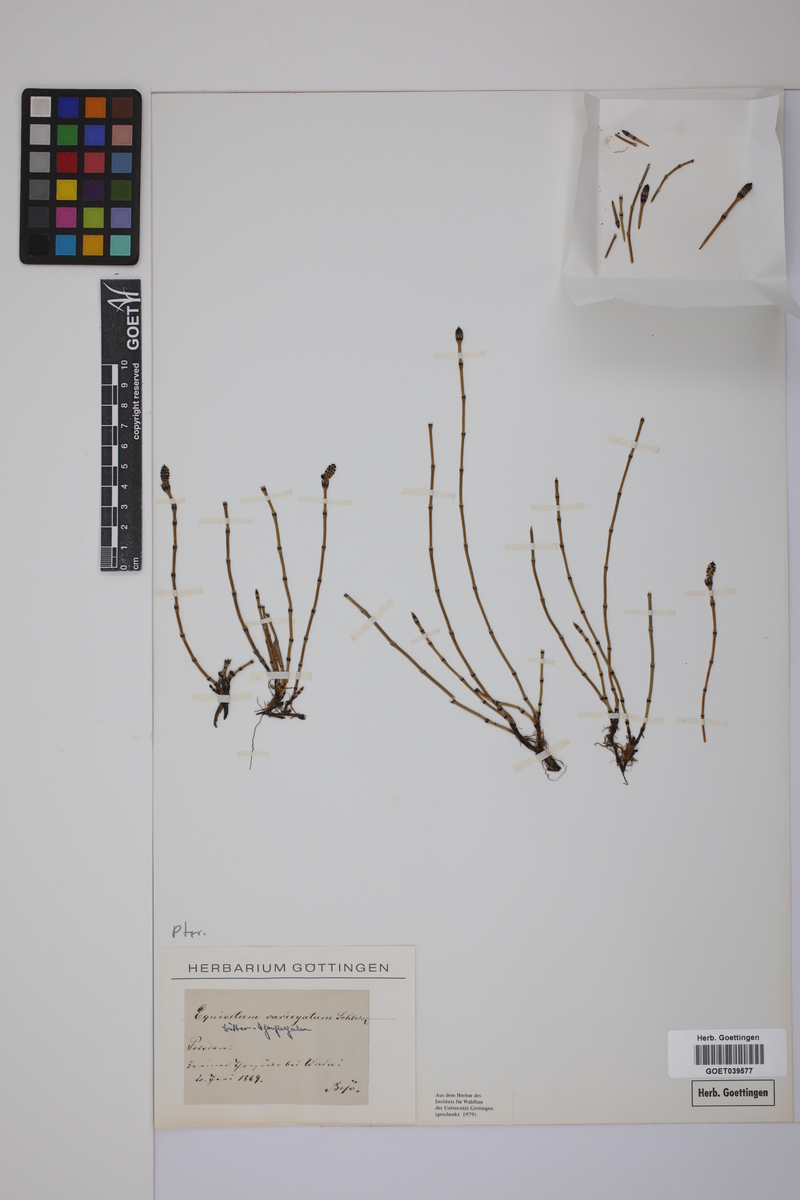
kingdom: Plantae
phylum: Tracheophyta
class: Polypodiopsida
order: Equisetales
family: Equisetaceae
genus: Equisetum
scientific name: Equisetum variegatum
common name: Variegated horsetail
